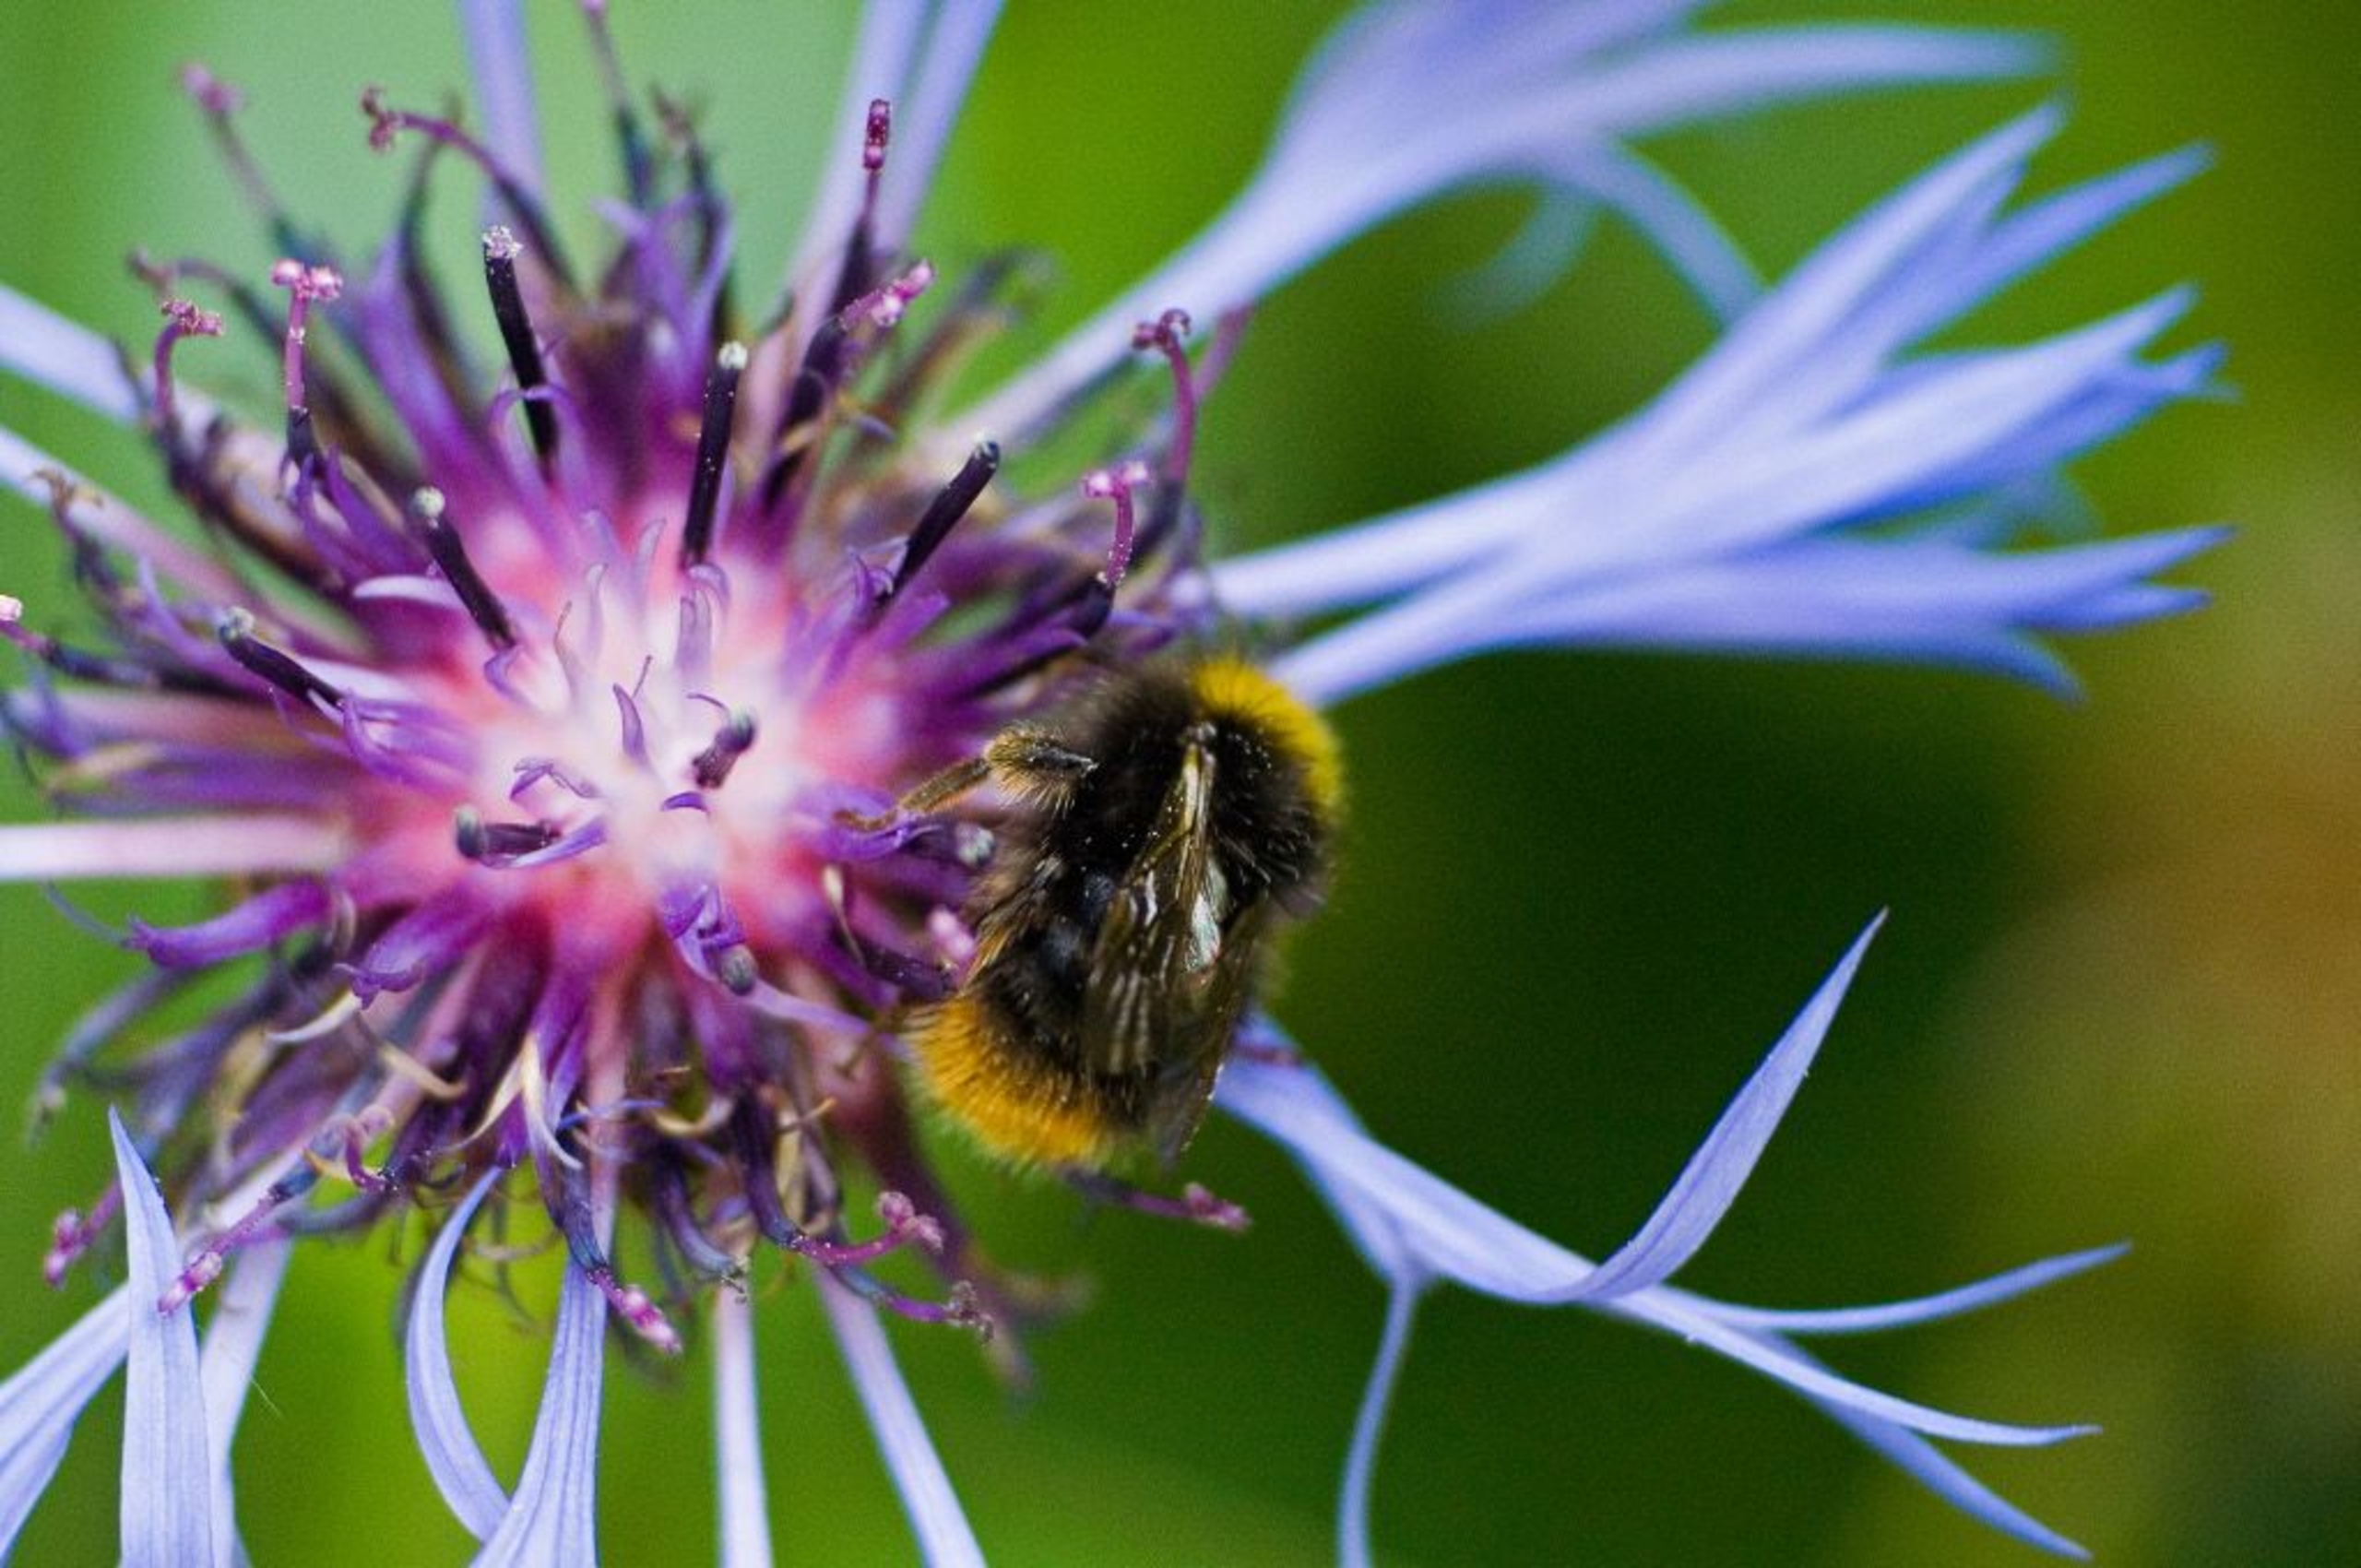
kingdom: Animalia
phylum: Arthropoda
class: Insecta
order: Hymenoptera
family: Apidae
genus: Bombus
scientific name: Bombus pratorum
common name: Lille skovhumle
